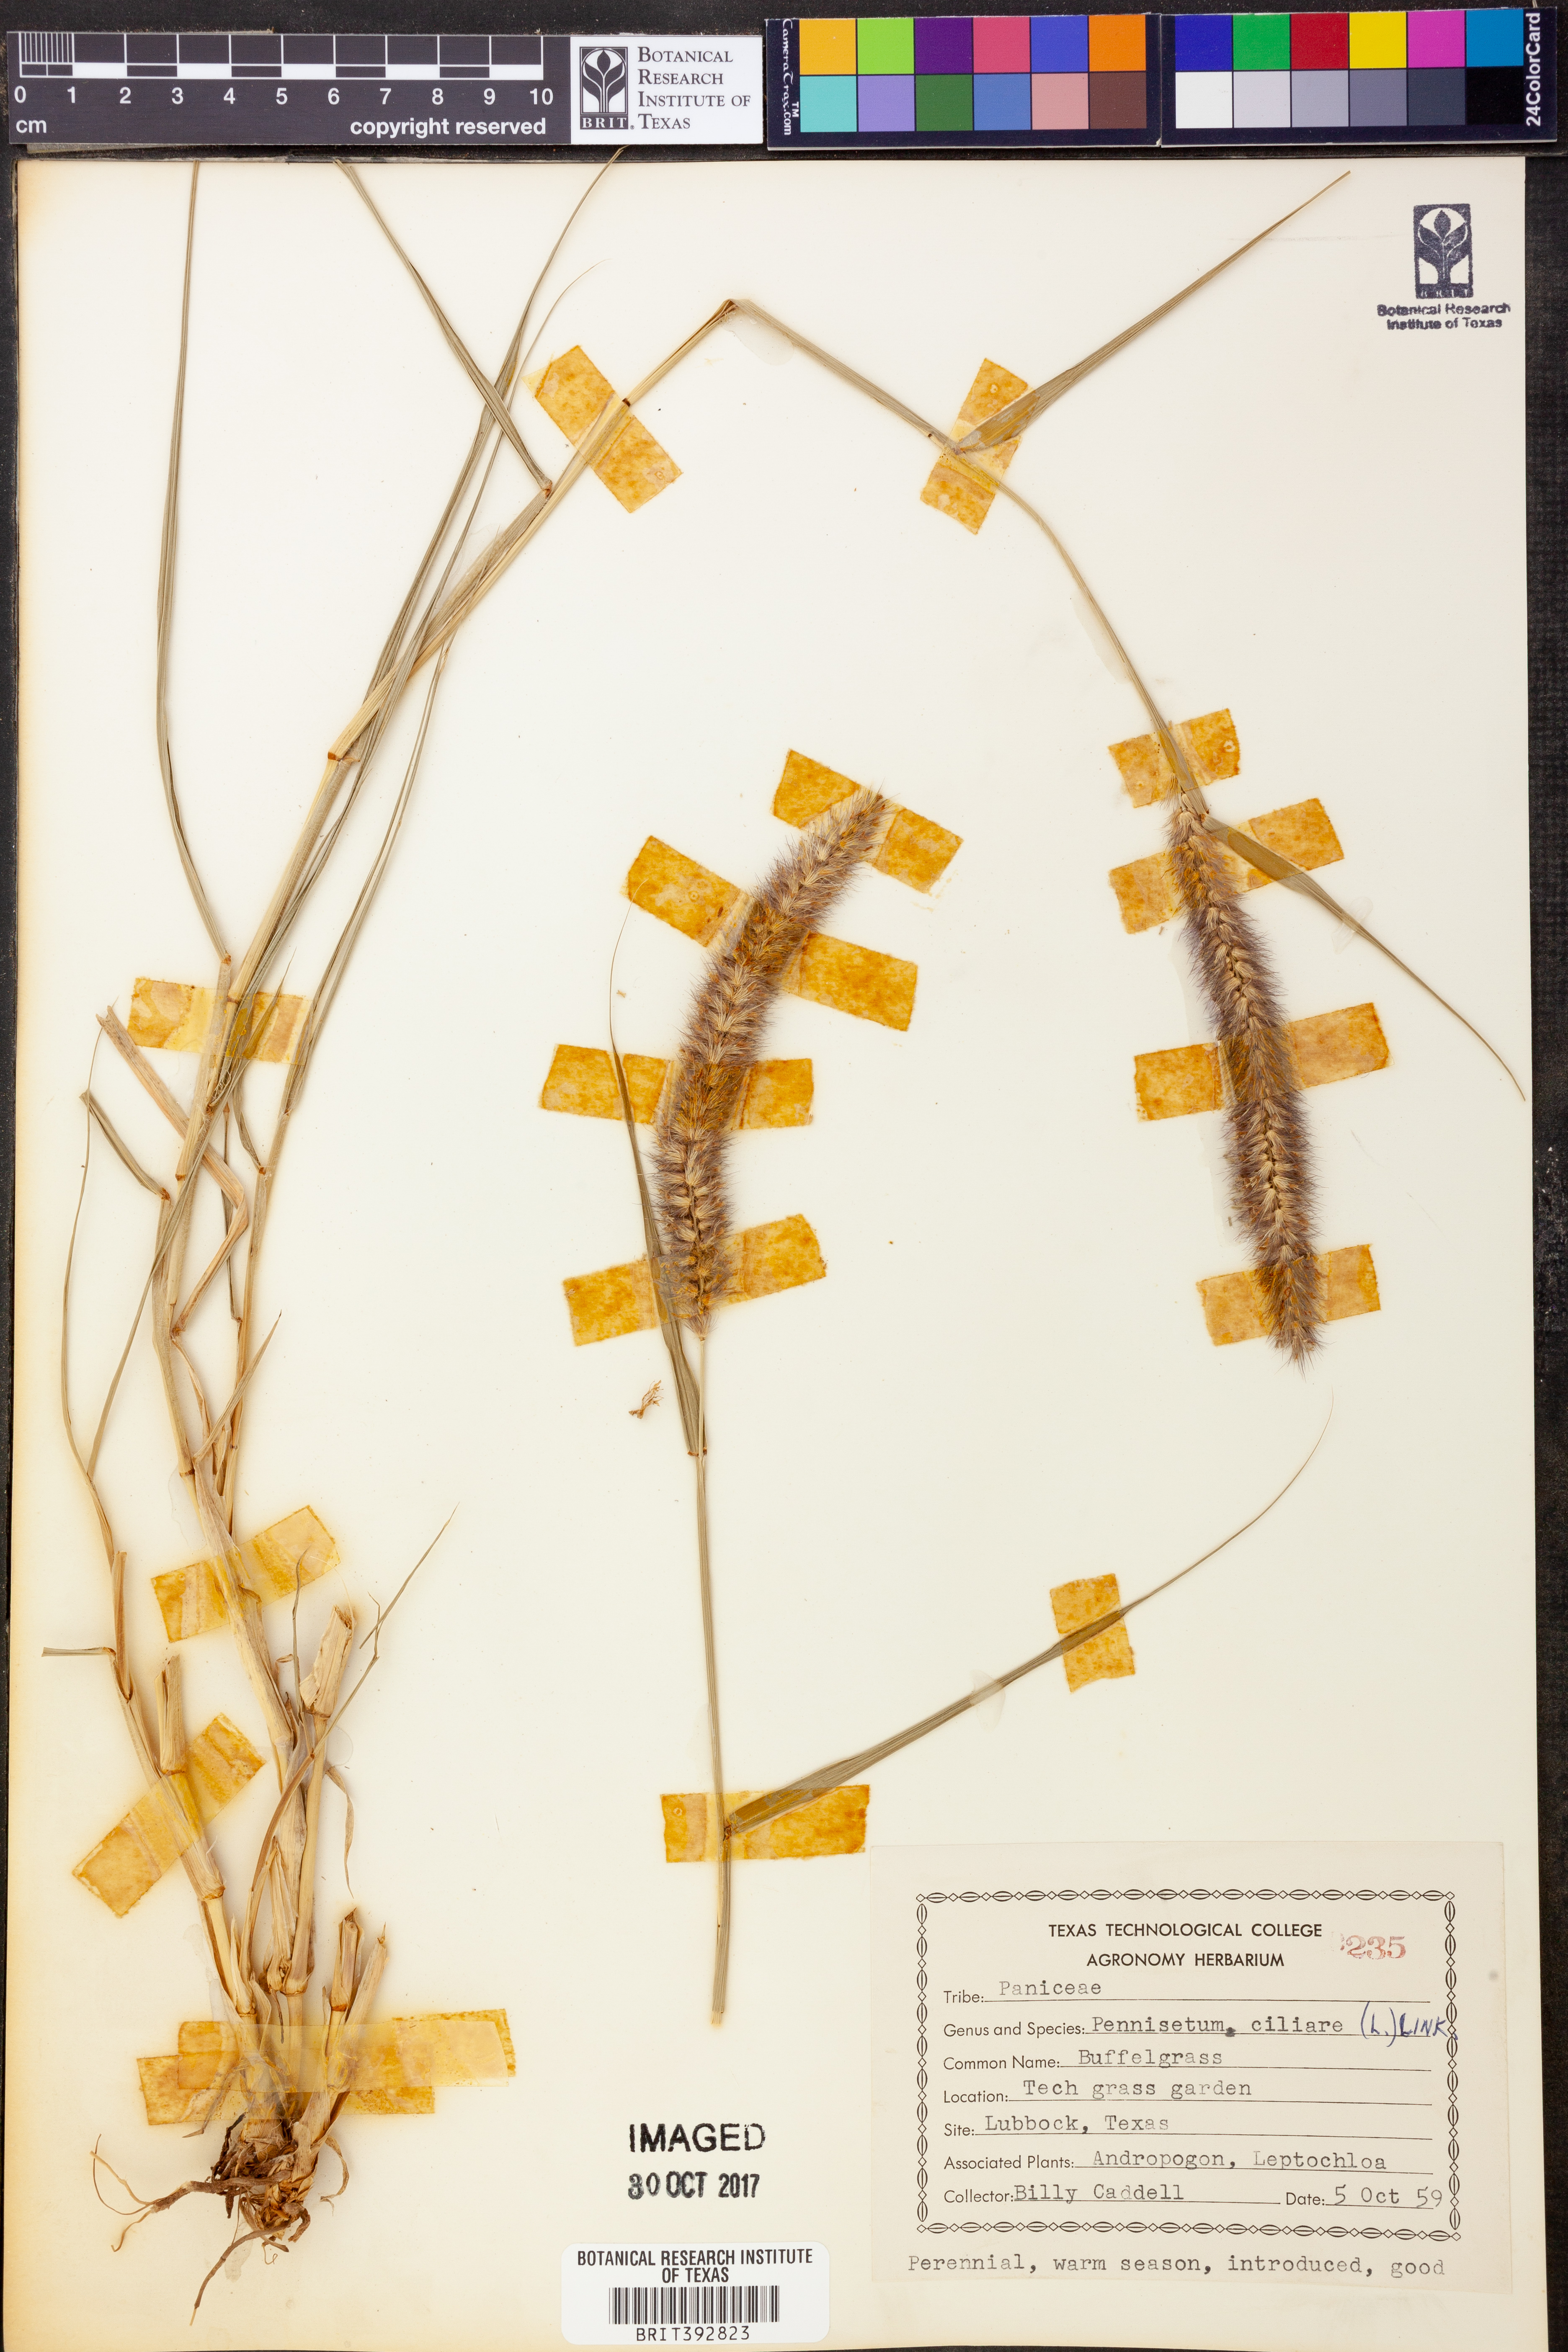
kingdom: Plantae
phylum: Tracheophyta
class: Liliopsida
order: Poales
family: Poaceae
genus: Cenchrus
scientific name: Cenchrus ciliaris
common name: Buffelgrass
